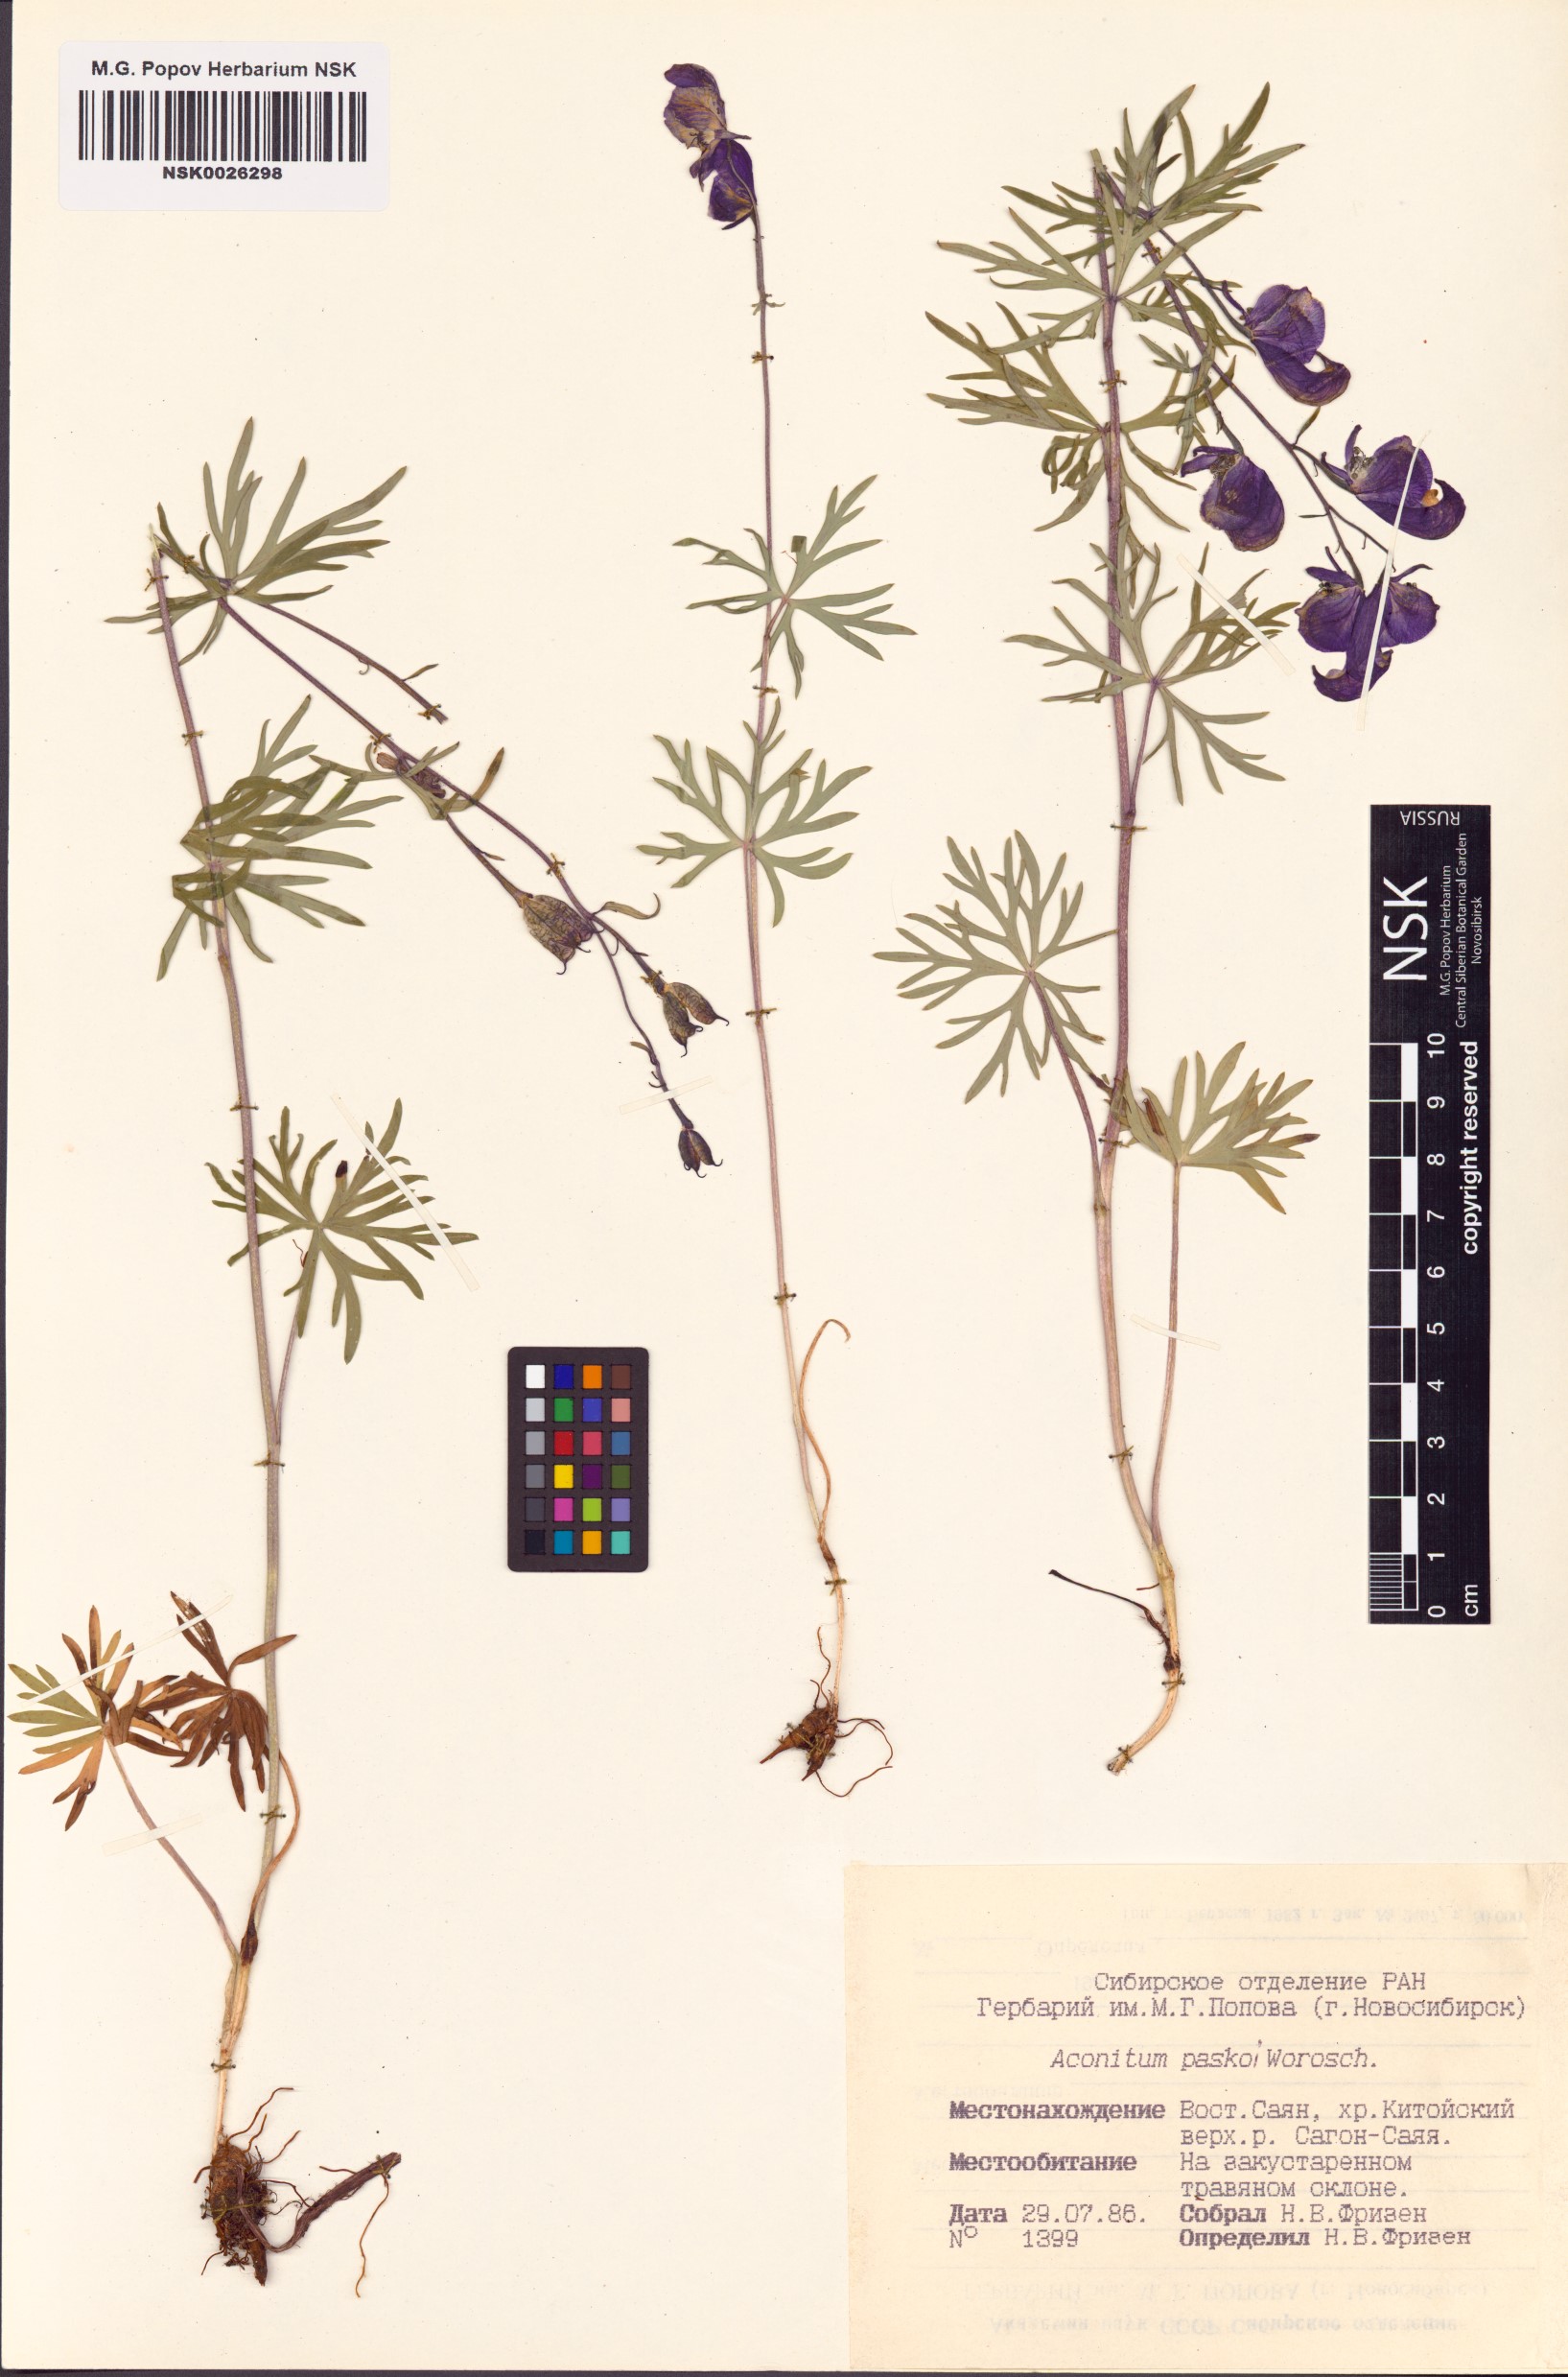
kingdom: Plantae
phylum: Tracheophyta
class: Magnoliopsida
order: Ranunculales
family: Ranunculaceae
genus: Aconitum
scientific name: Aconitum pascoi
